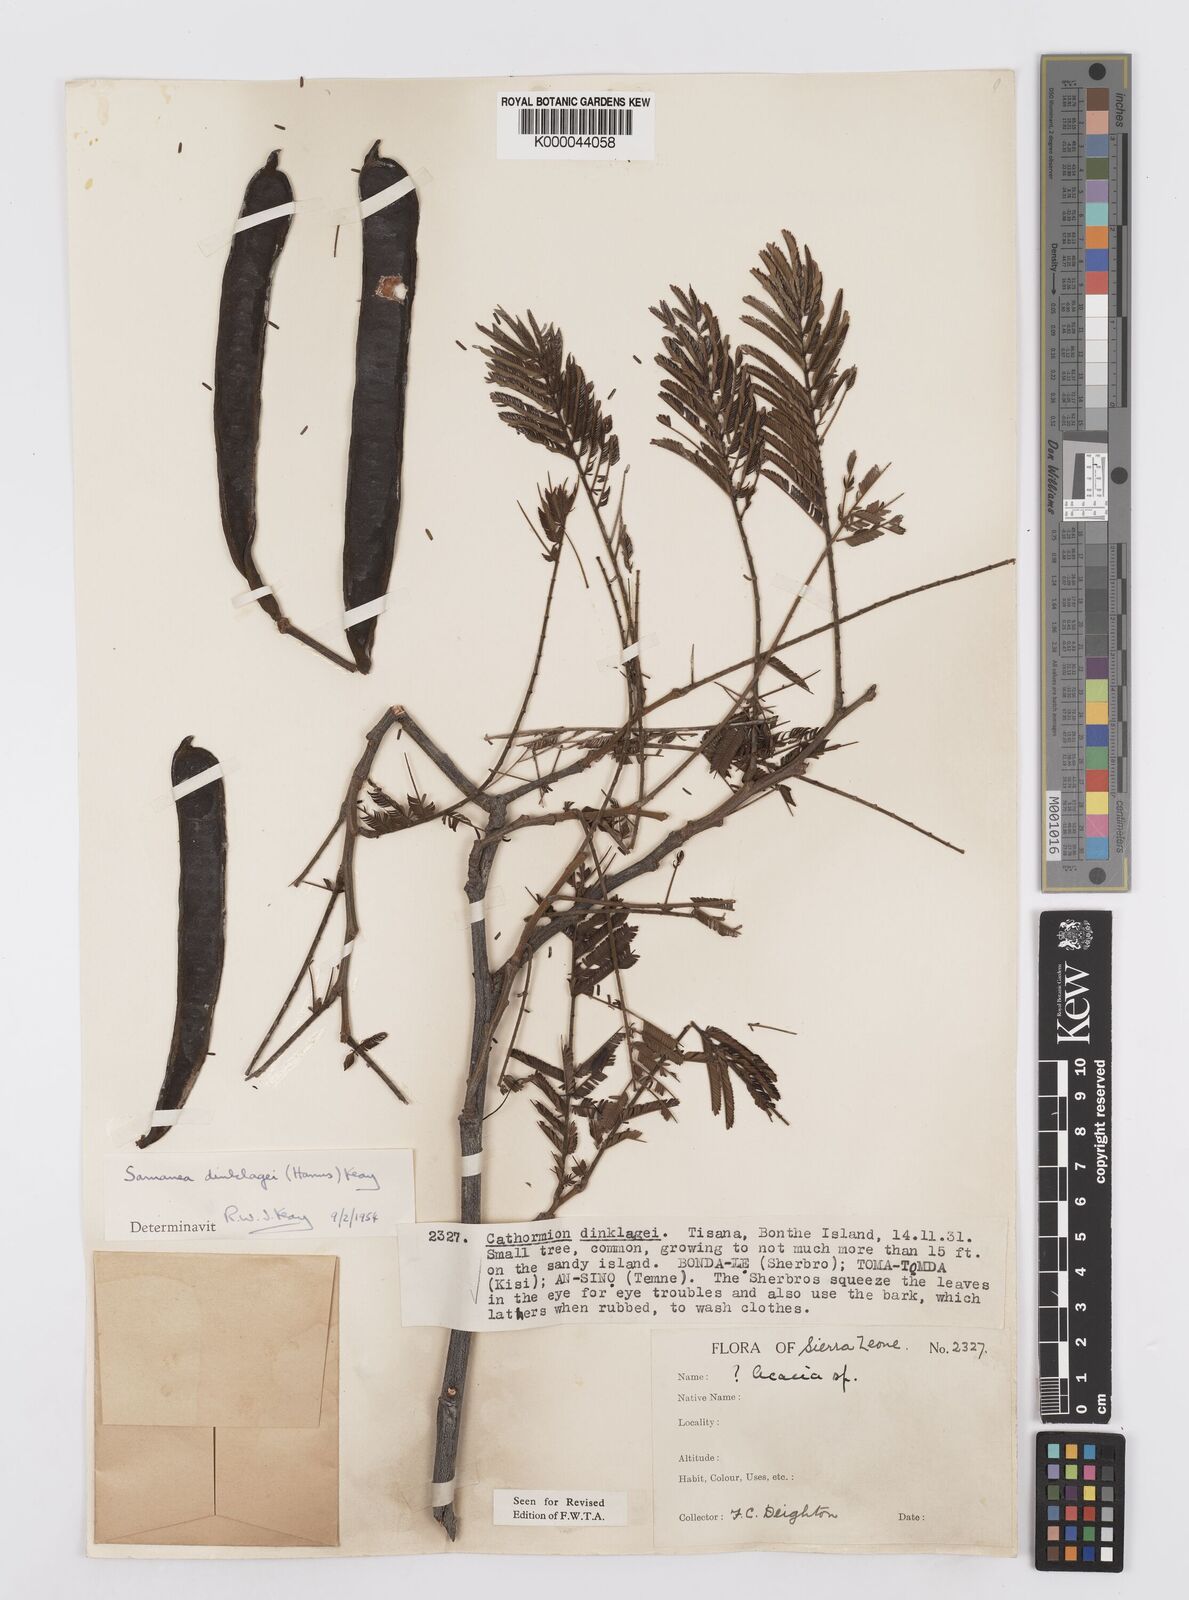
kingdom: Plantae
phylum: Tracheophyta
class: Magnoliopsida
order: Fabales
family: Fabaceae
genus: Albizia
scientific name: Albizia dinklagei
